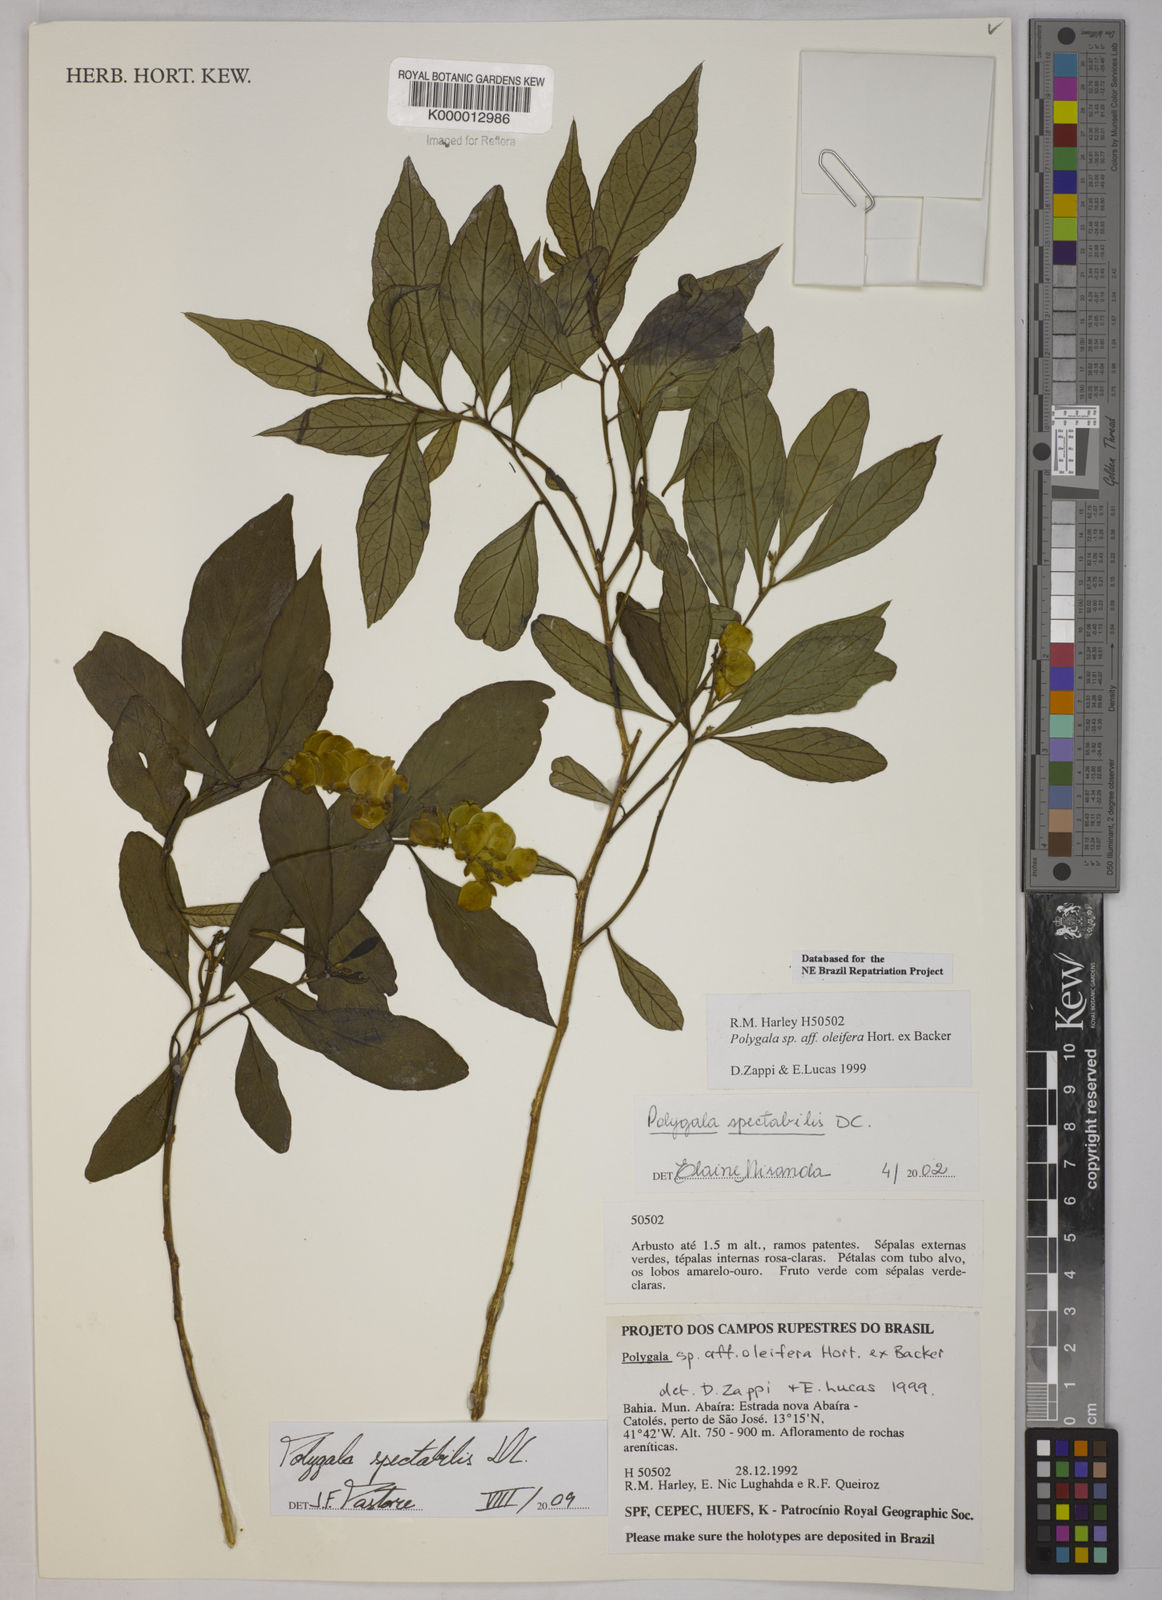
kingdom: Plantae
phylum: Tracheophyta
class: Magnoliopsida
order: Fabales
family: Polygalaceae
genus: Caamembeca
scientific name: Caamembeca spectabilis
